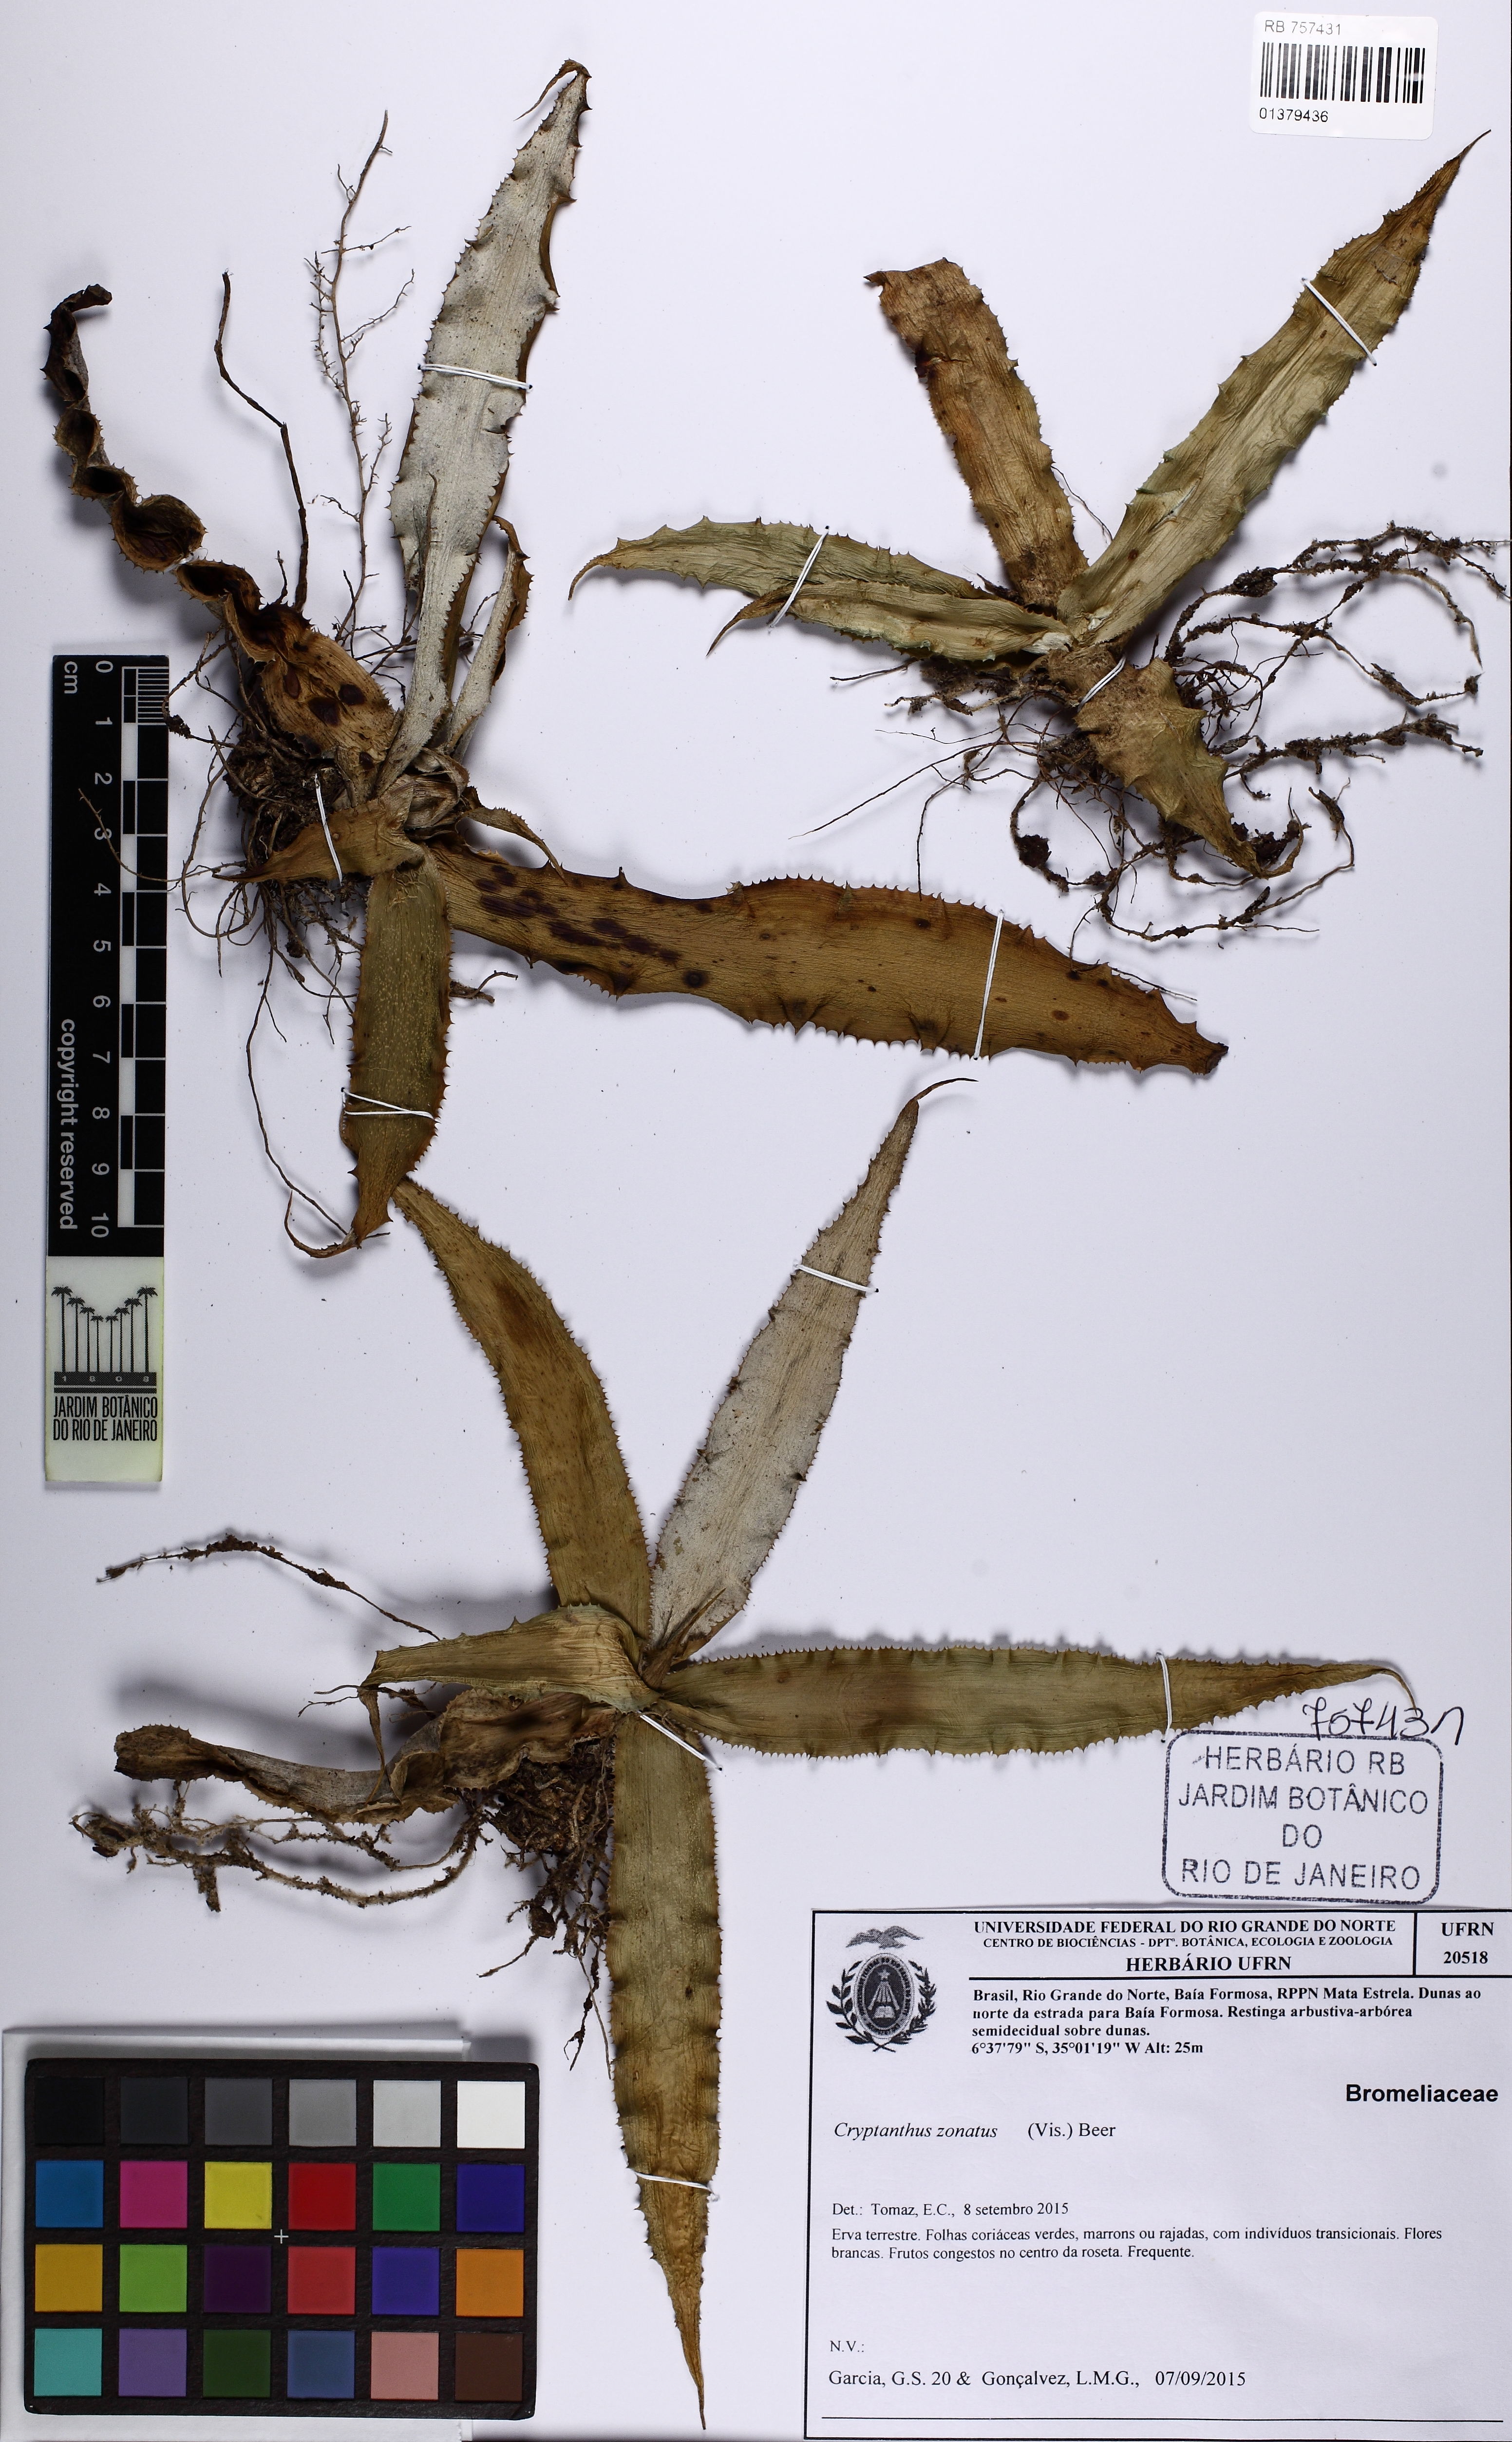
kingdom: Plantae
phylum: Tracheophyta
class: Liliopsida
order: Poales
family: Bromeliaceae
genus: Cryptanthus
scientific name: Cryptanthus zonatus
